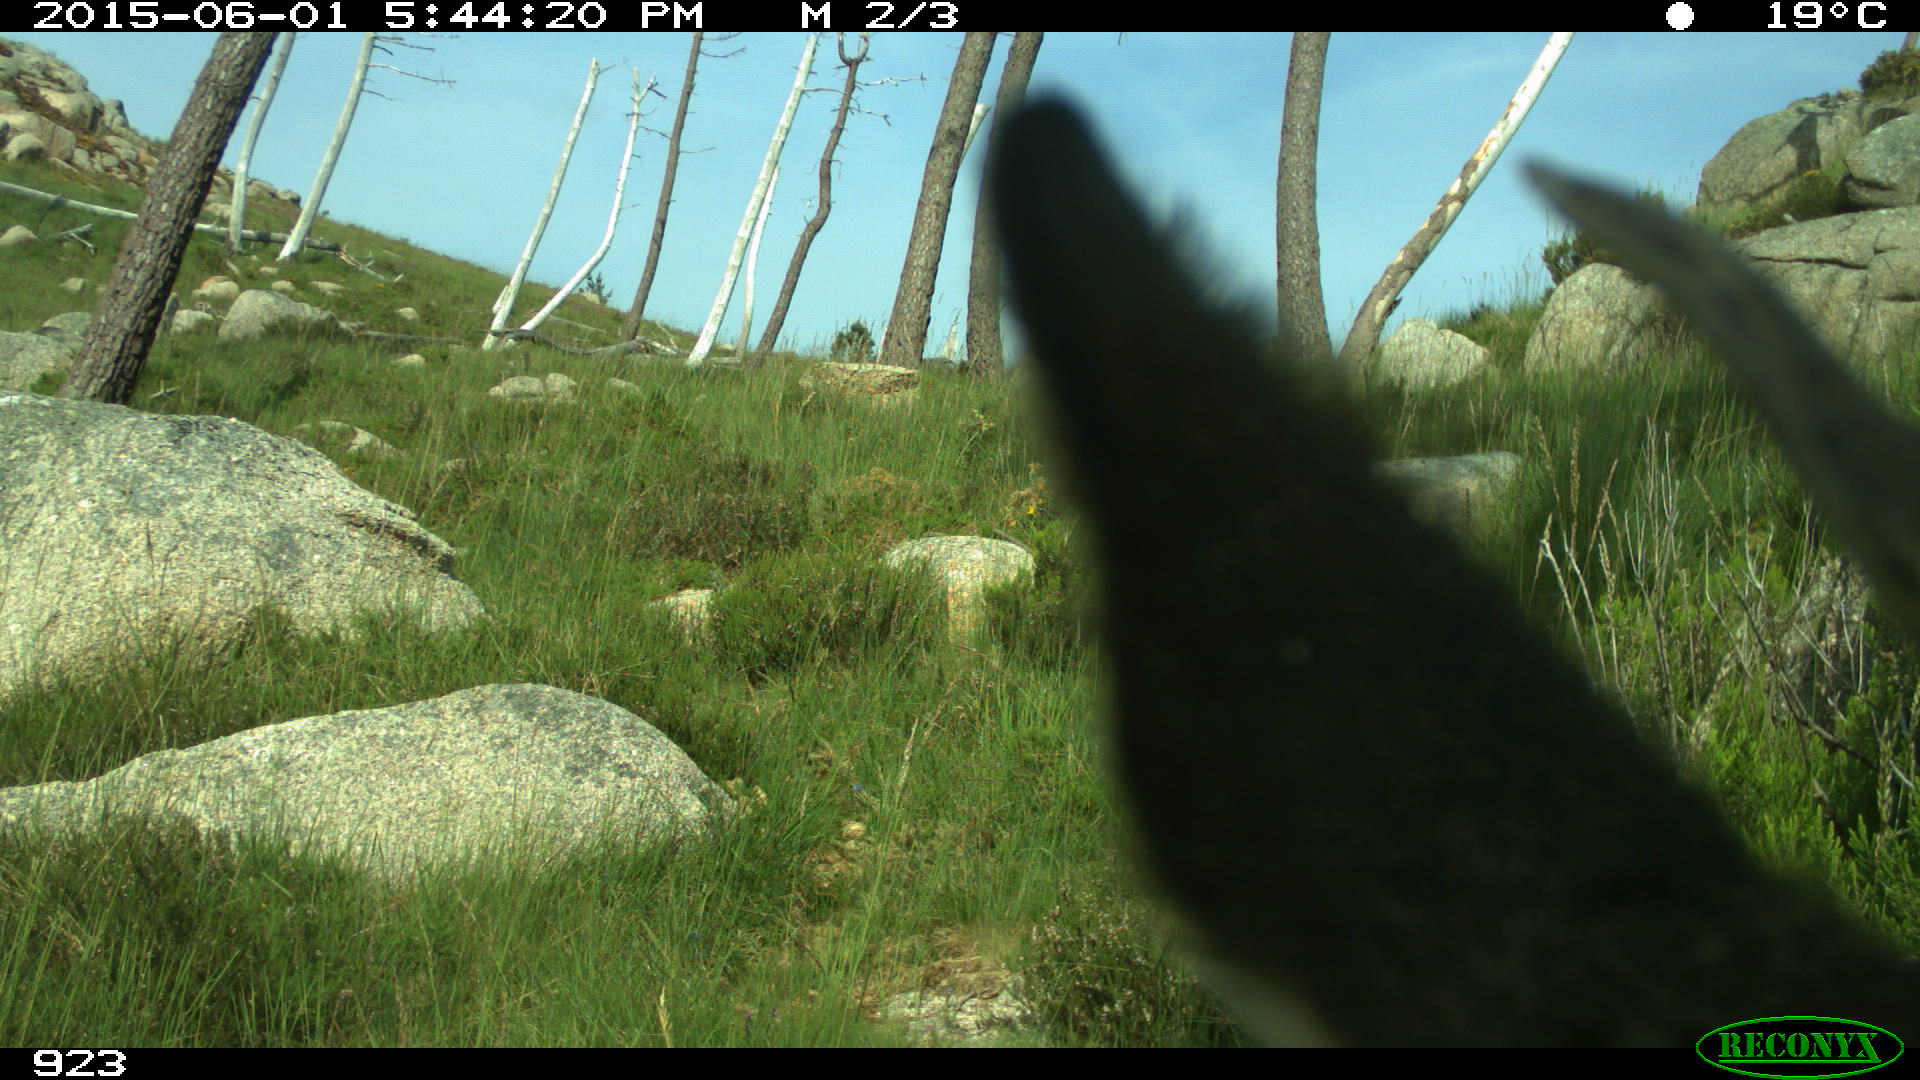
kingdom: Animalia
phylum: Chordata
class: Mammalia
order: Artiodactyla
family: Cervidae
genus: Capreolus
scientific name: Capreolus capreolus
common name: Western roe deer
